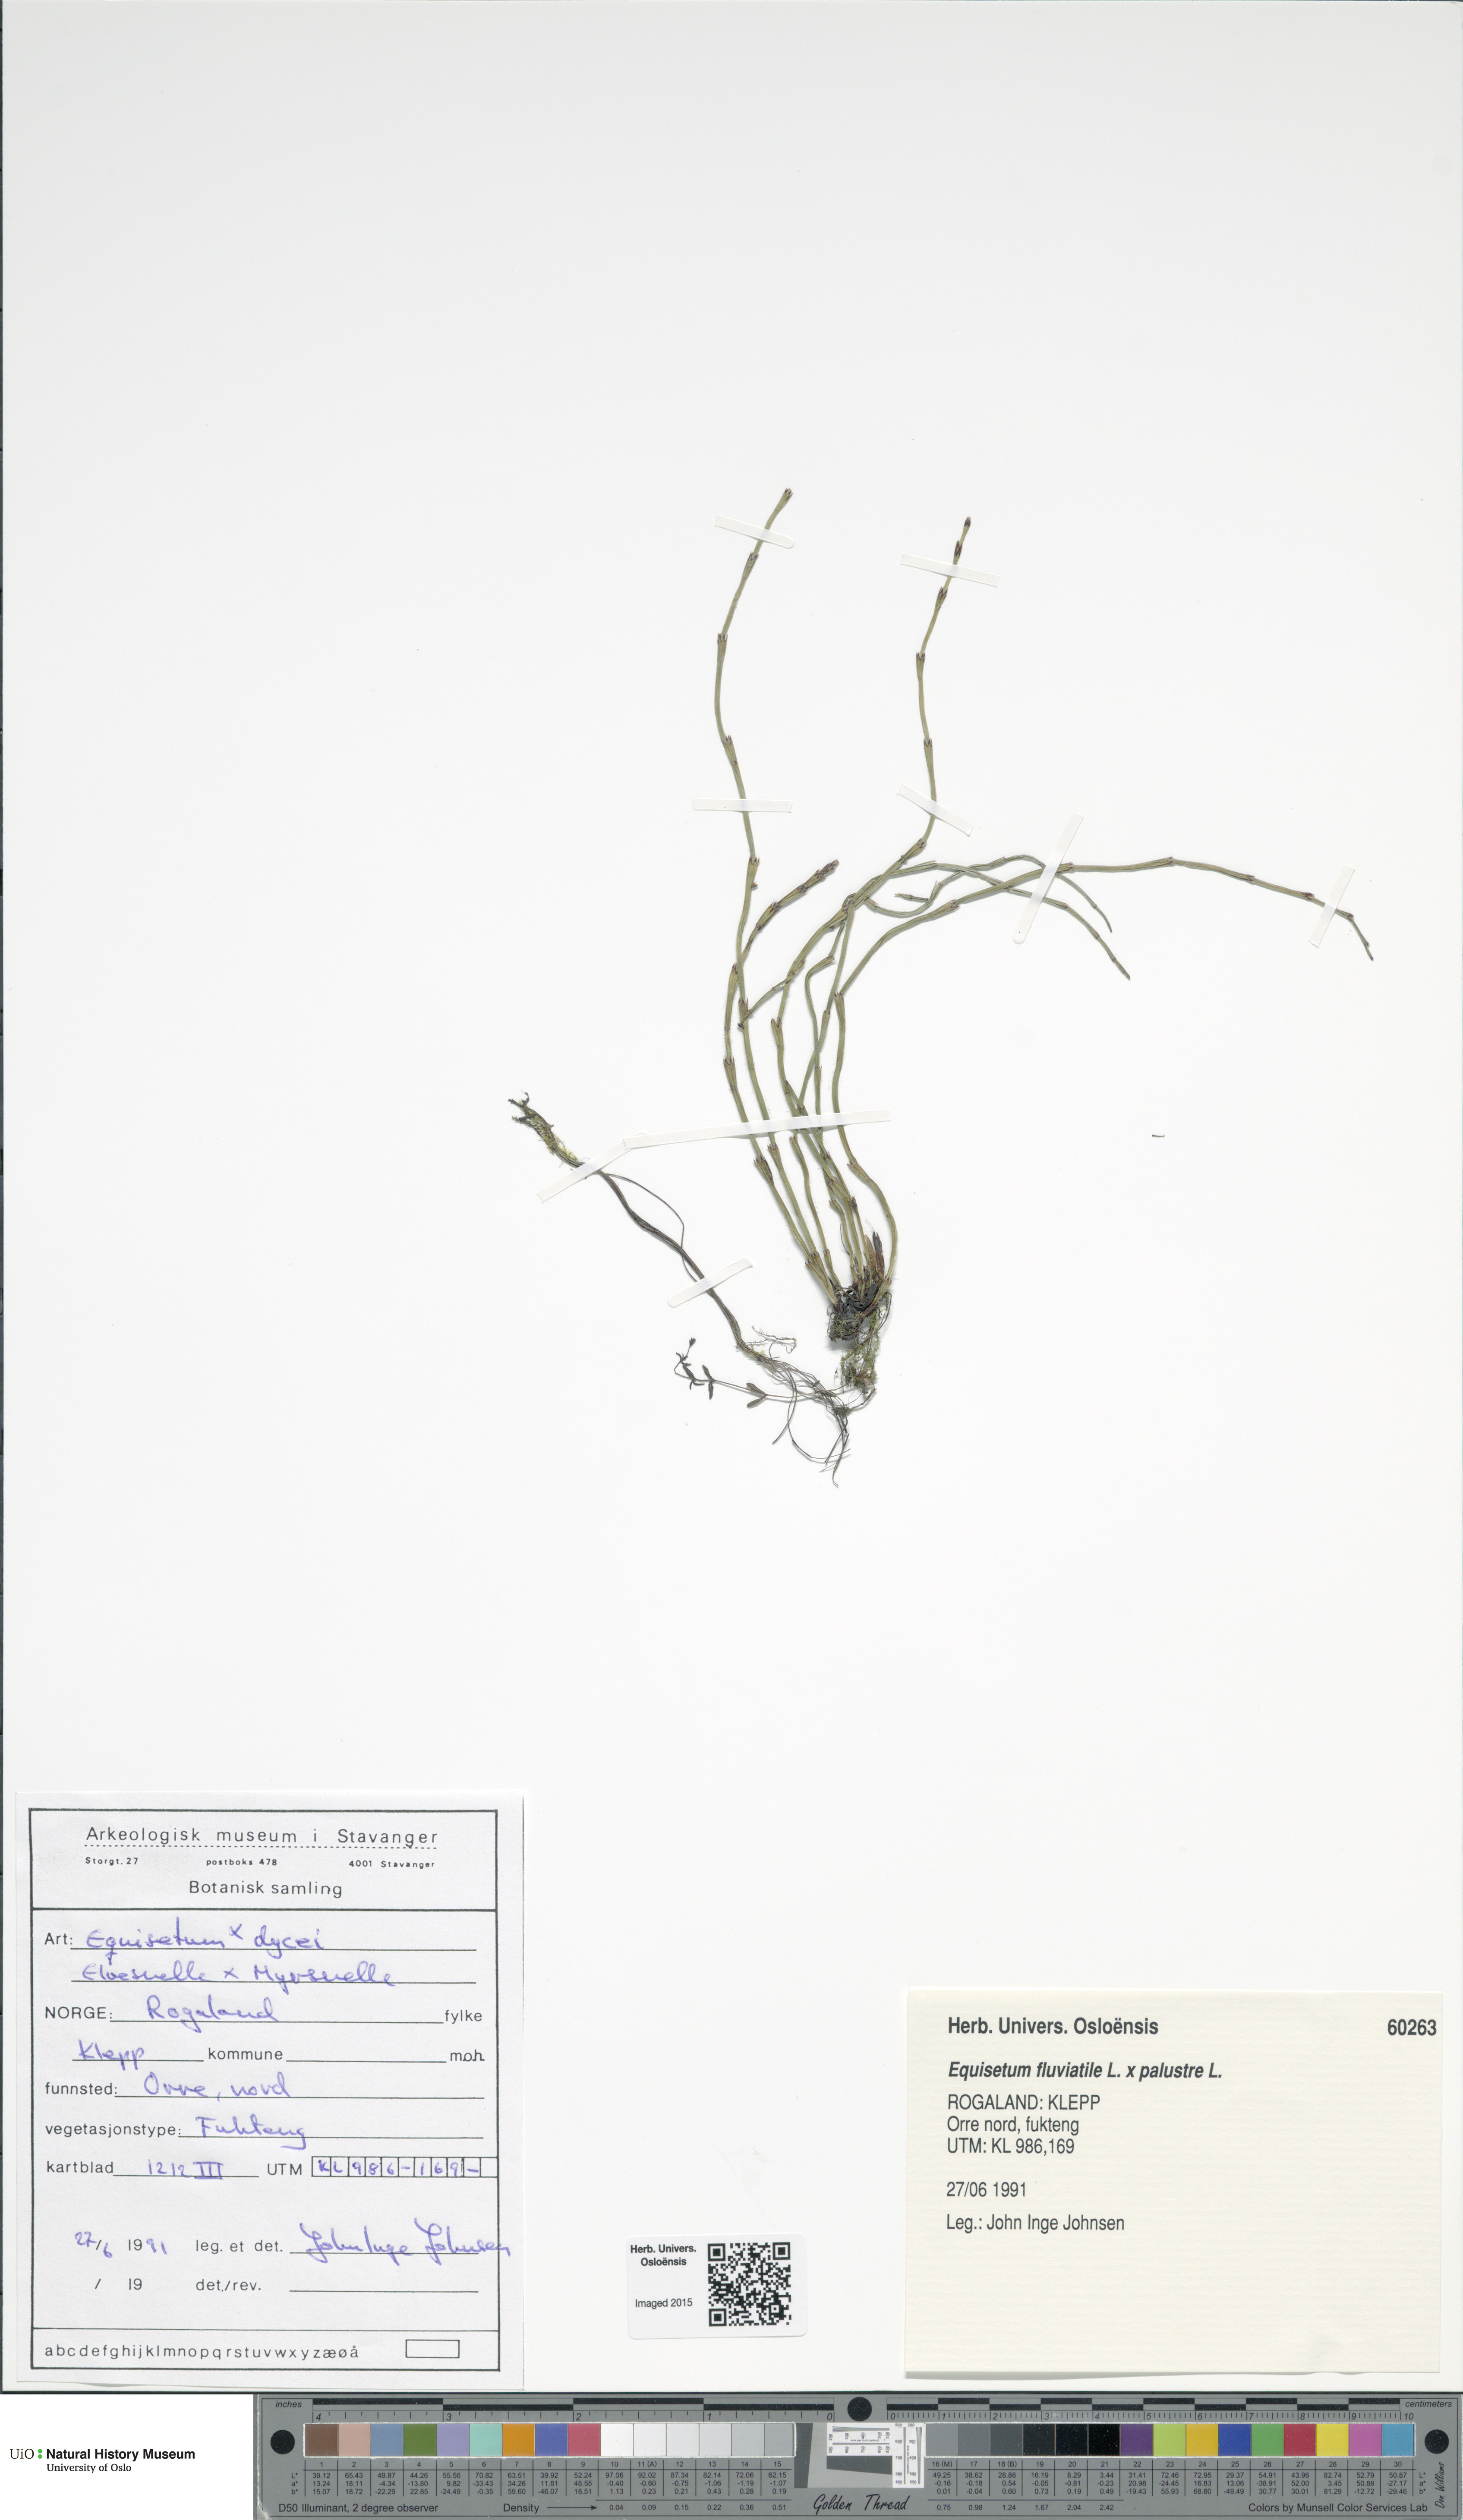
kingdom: Plantae
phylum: Tracheophyta
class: Polypodiopsida
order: Equisetales
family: Equisetaceae
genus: Equisetum
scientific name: Equisetum
